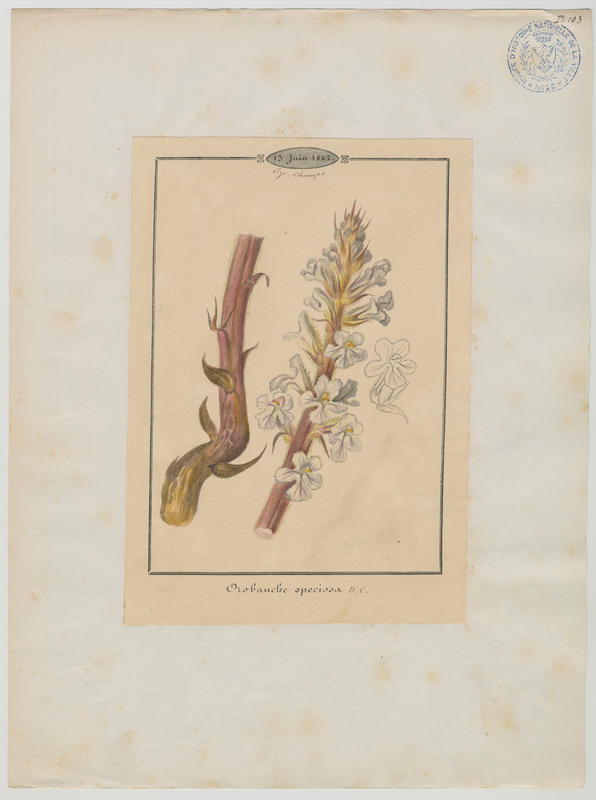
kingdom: Plantae
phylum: Tracheophyta
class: Magnoliopsida
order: Lamiales
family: Orobanchaceae
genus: Orobanche
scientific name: Orobanche crenata
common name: Bean broomrape
